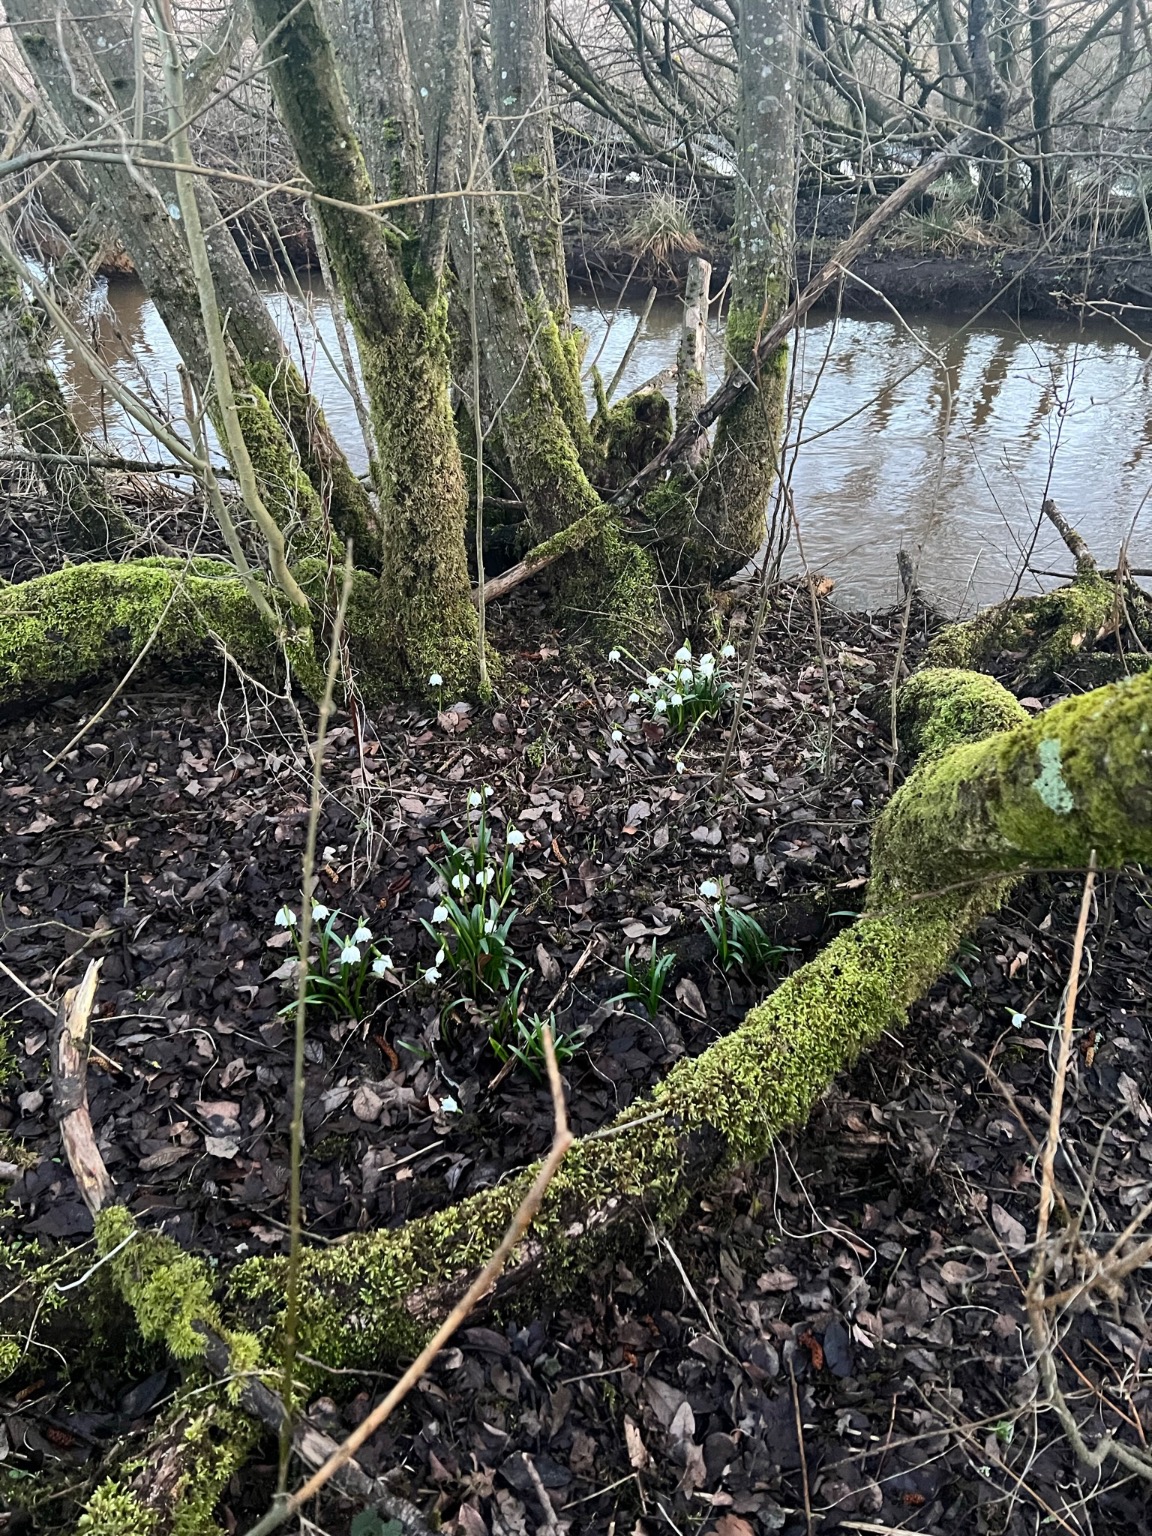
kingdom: Plantae
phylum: Tracheophyta
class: Liliopsida
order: Asparagales
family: Amaryllidaceae
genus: Leucojum
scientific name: Leucojum vernum
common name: Dorthealilje
